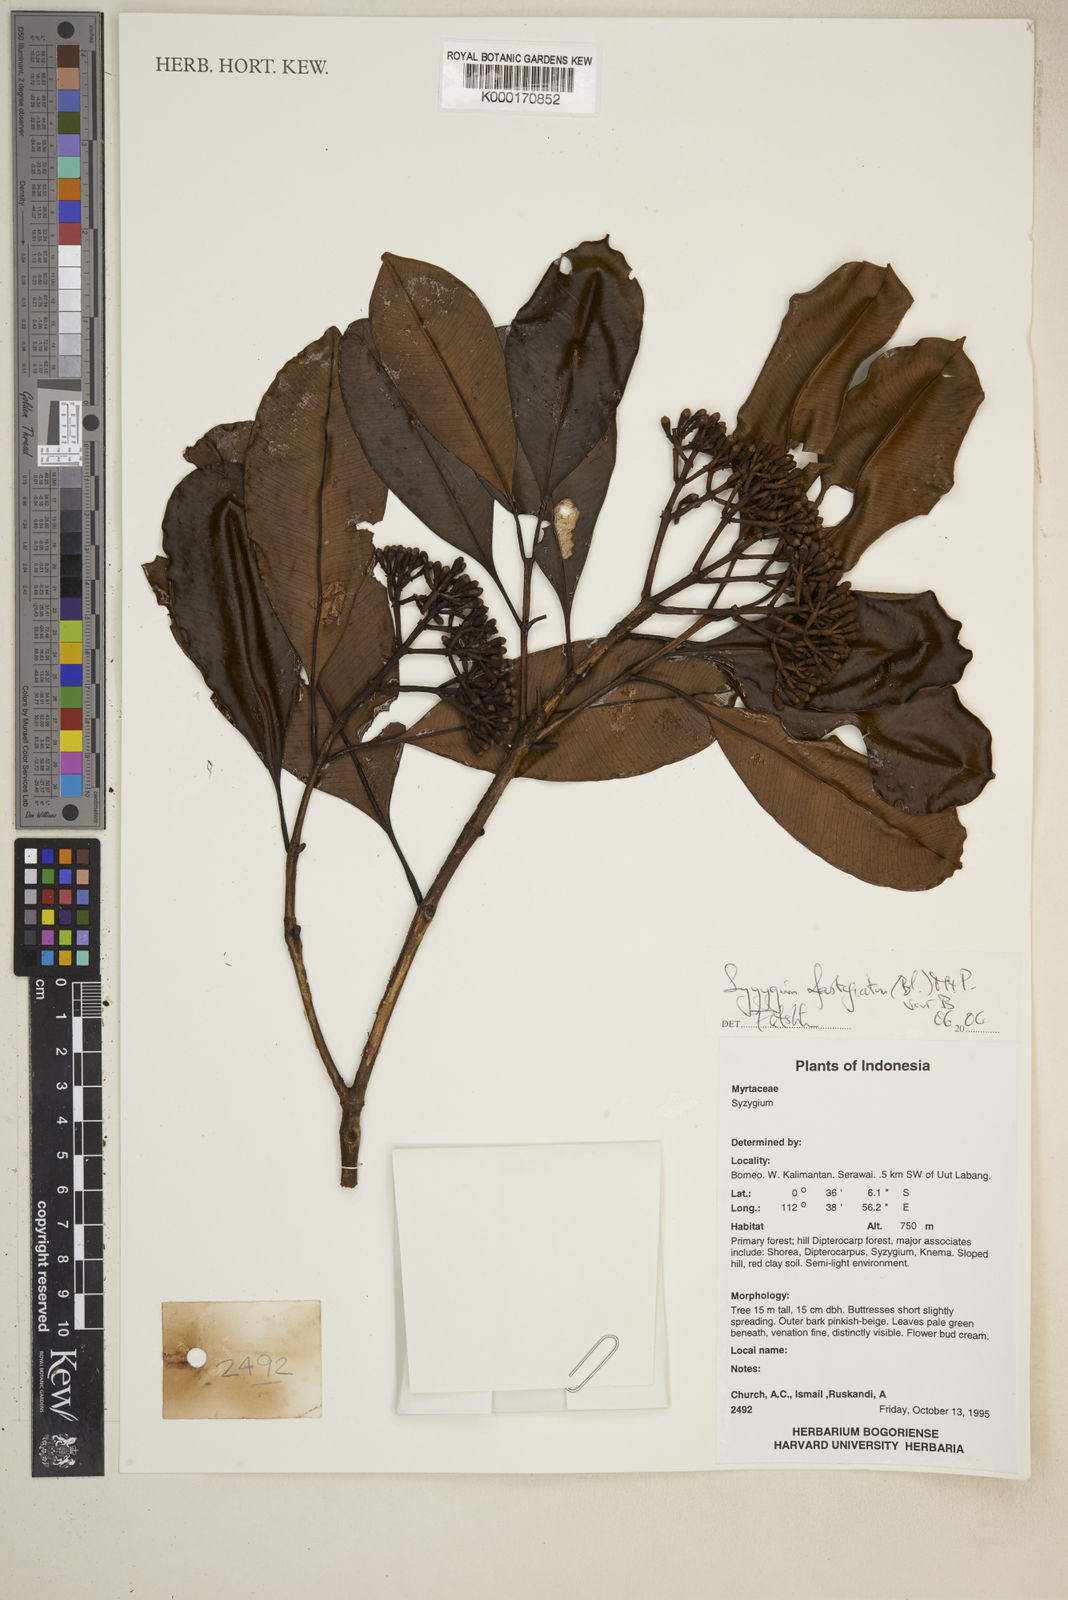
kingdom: Plantae
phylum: Tracheophyta
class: Magnoliopsida
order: Myrtales
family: Myrtaceae
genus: Syzygium
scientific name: Syzygium fastigiatum
